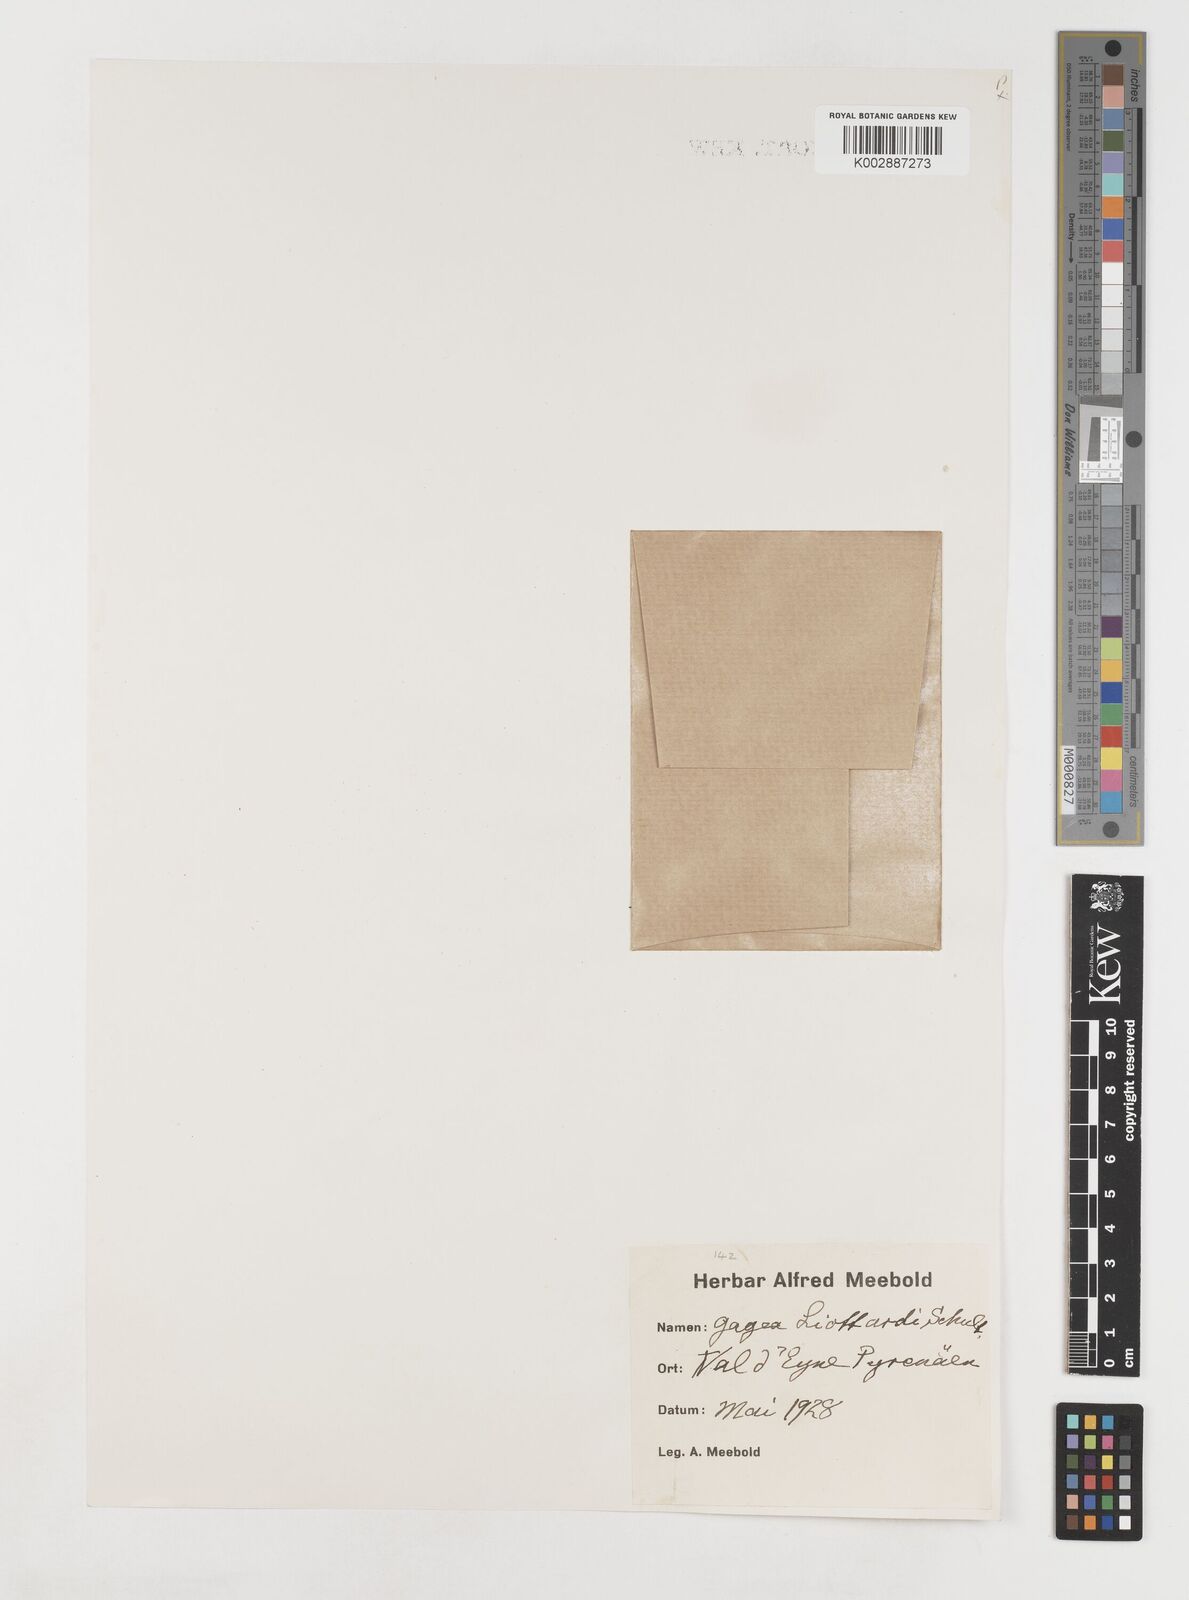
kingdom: Plantae
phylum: Tracheophyta
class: Liliopsida
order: Liliales
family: Liliaceae
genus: Gagea
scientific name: Gagea bohemica
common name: Early star-of-bethlehem
